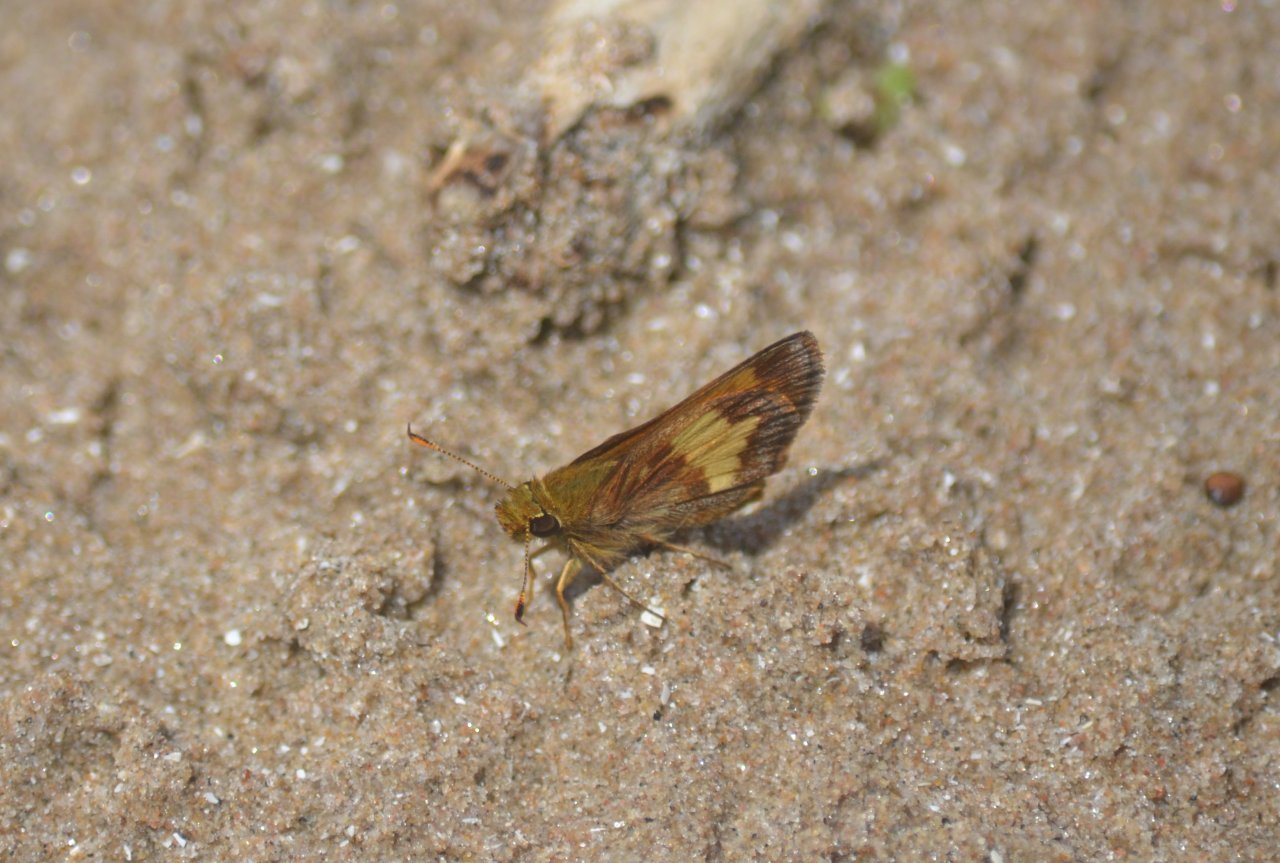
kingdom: Animalia
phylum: Arthropoda
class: Insecta
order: Lepidoptera
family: Hesperiidae
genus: Lon
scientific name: Lon hobomok
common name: Hobomok Skipper
